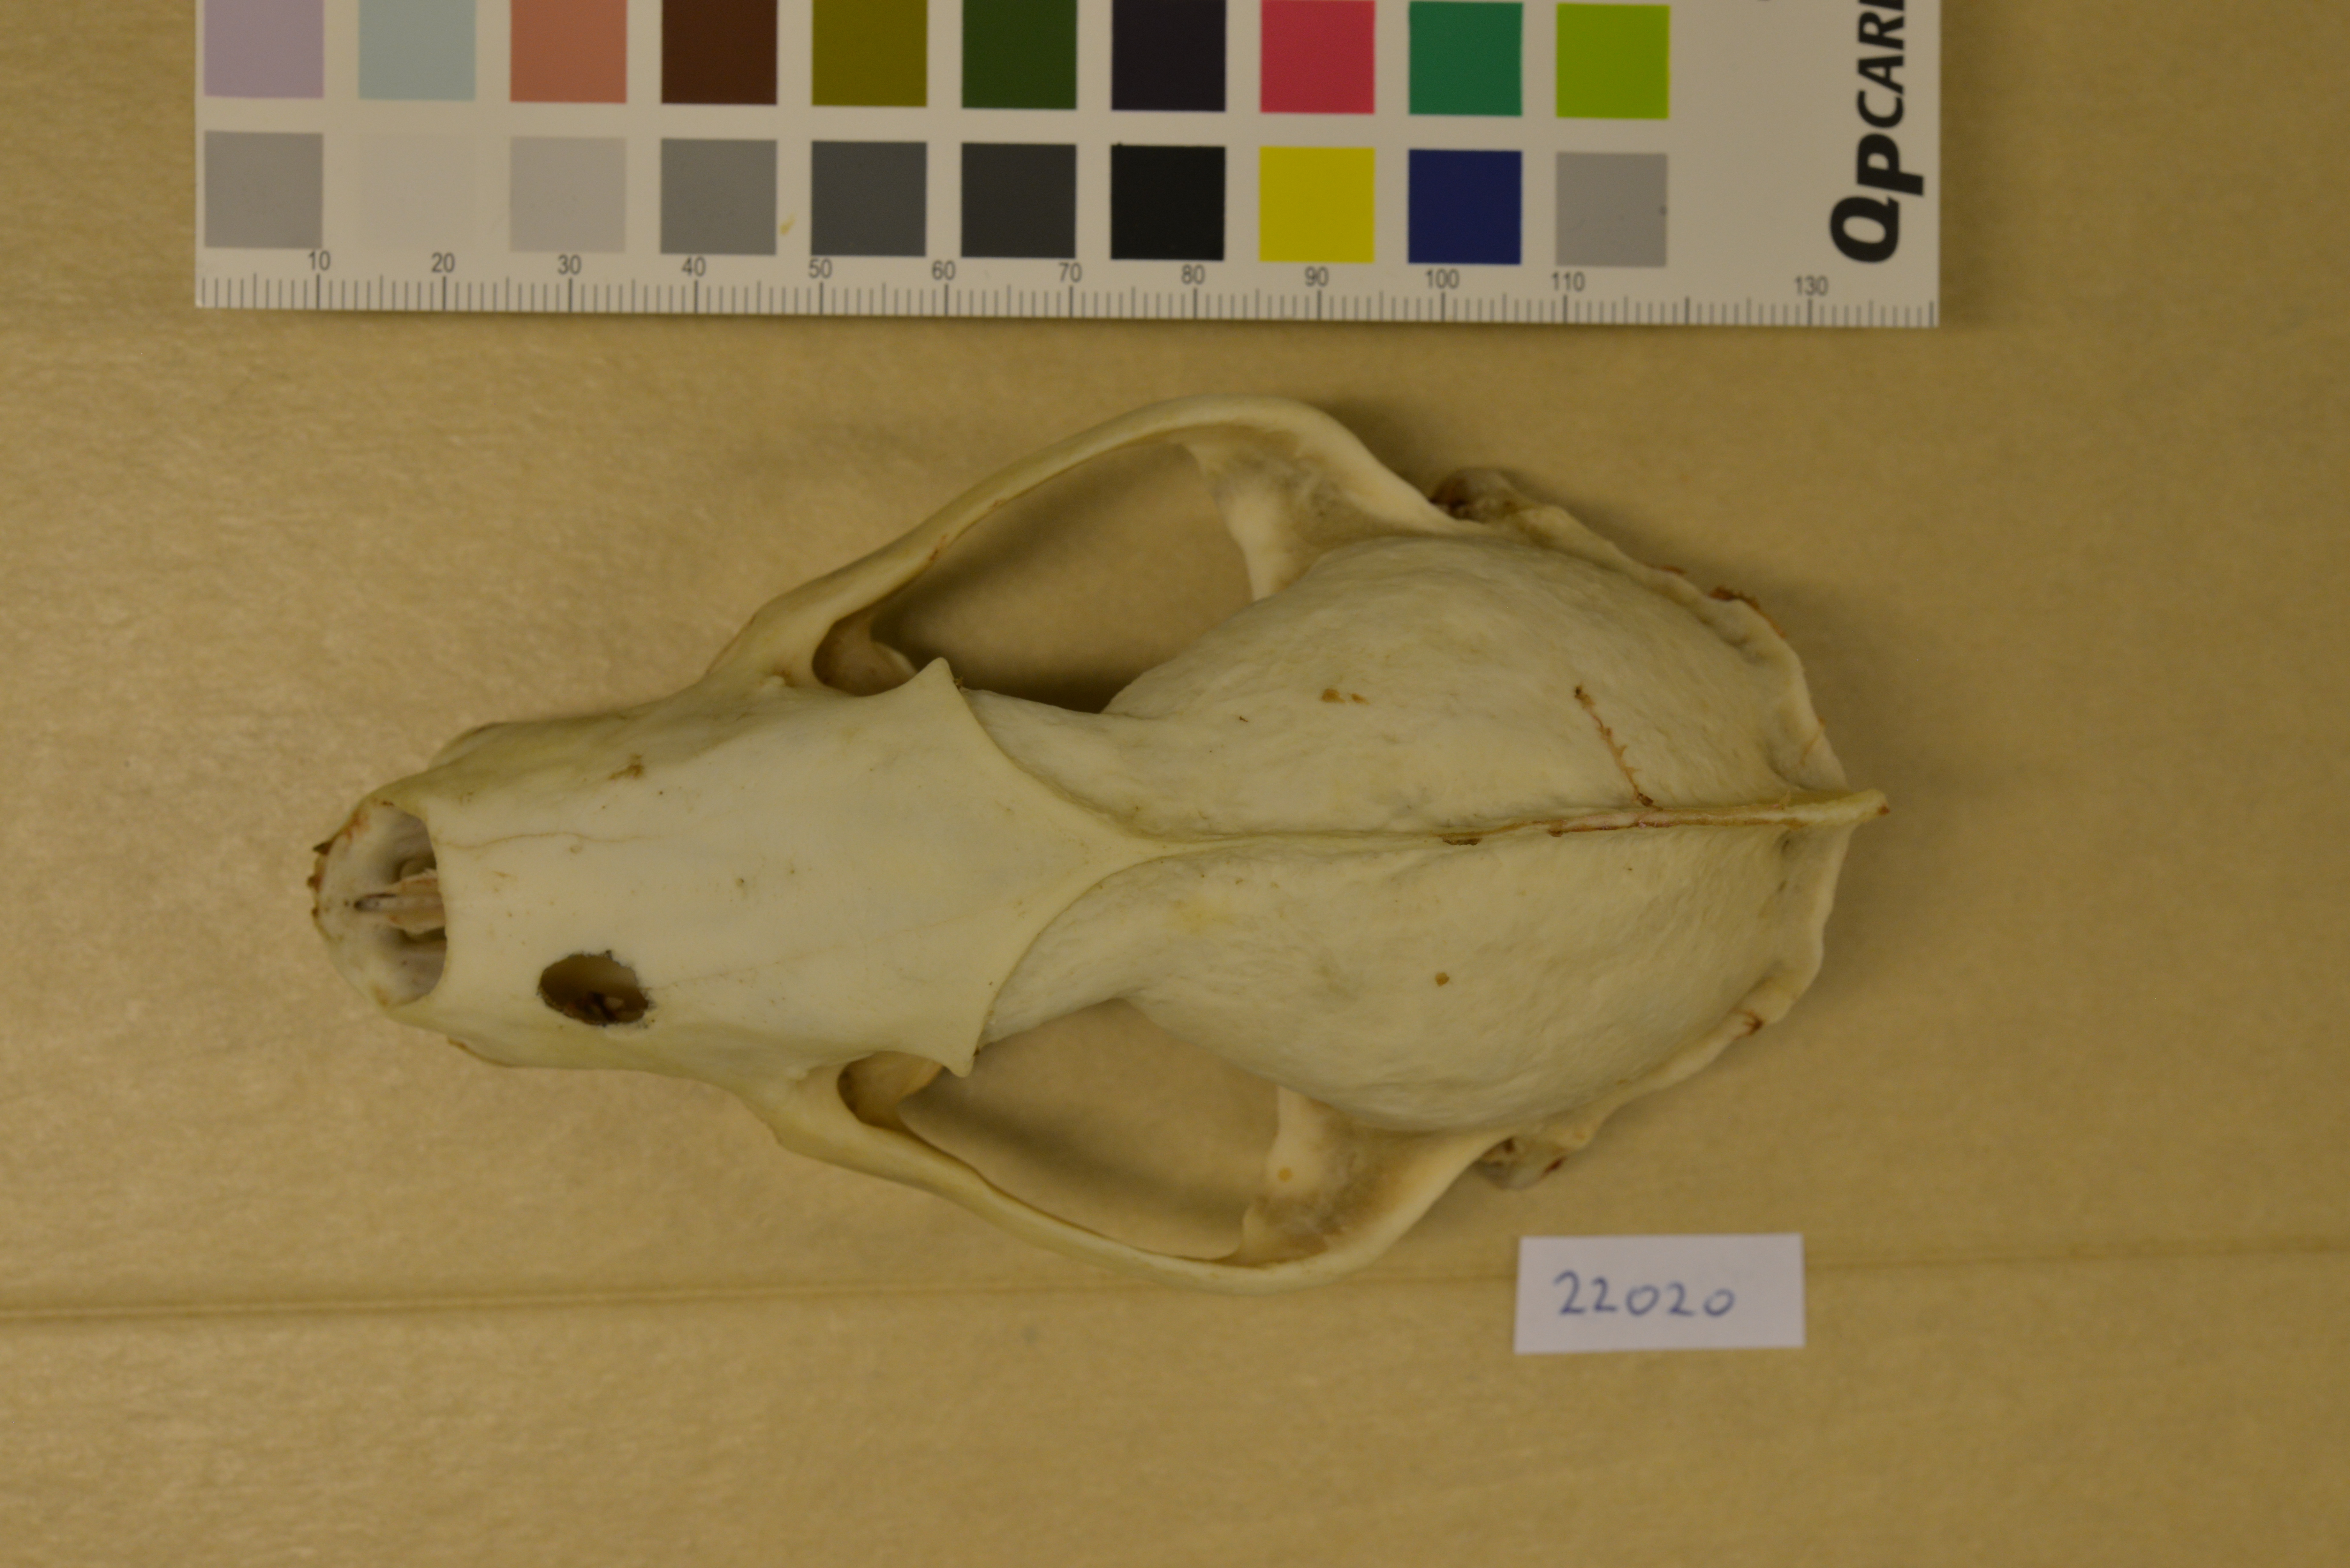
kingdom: Animalia
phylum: Chordata
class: Mammalia
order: Carnivora
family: Mustelidae
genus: Meles
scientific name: Meles meles
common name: Eurasian badger
